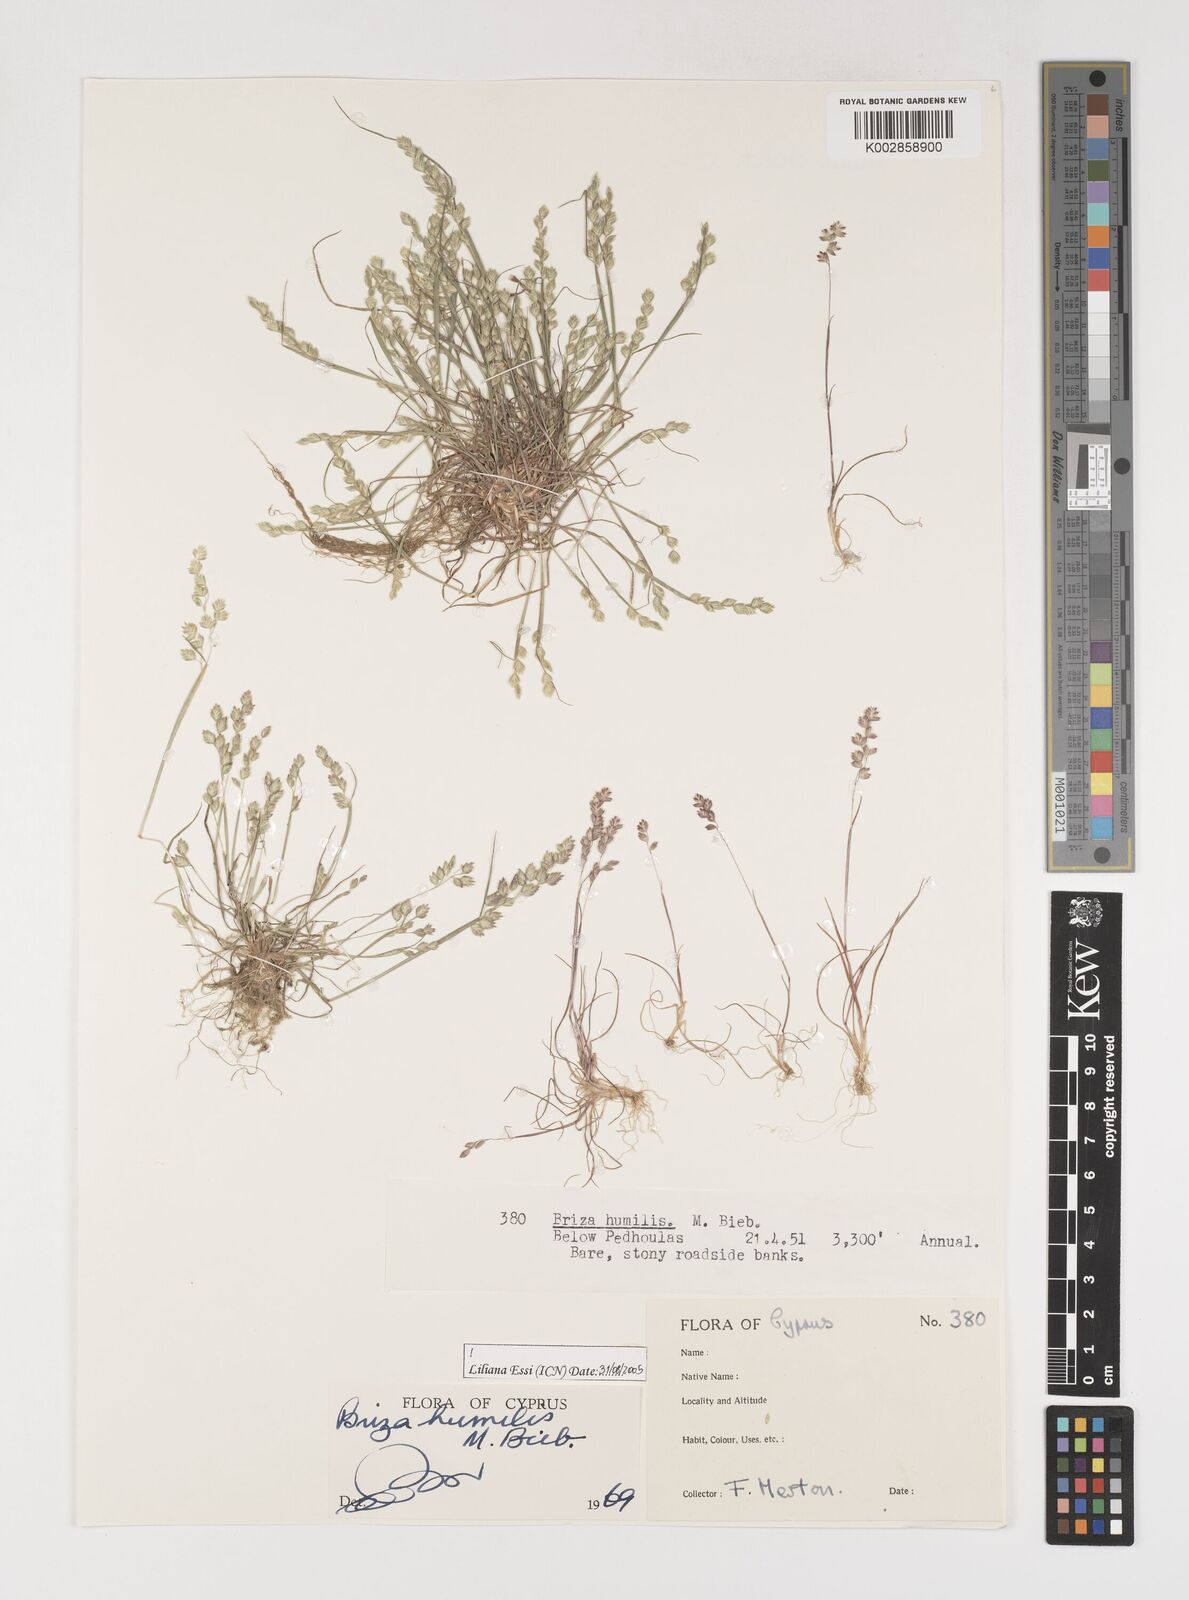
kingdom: Plantae
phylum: Tracheophyta
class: Liliopsida
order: Poales
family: Poaceae
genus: Briza
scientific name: Briza humilis
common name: Spiked quaking grass
